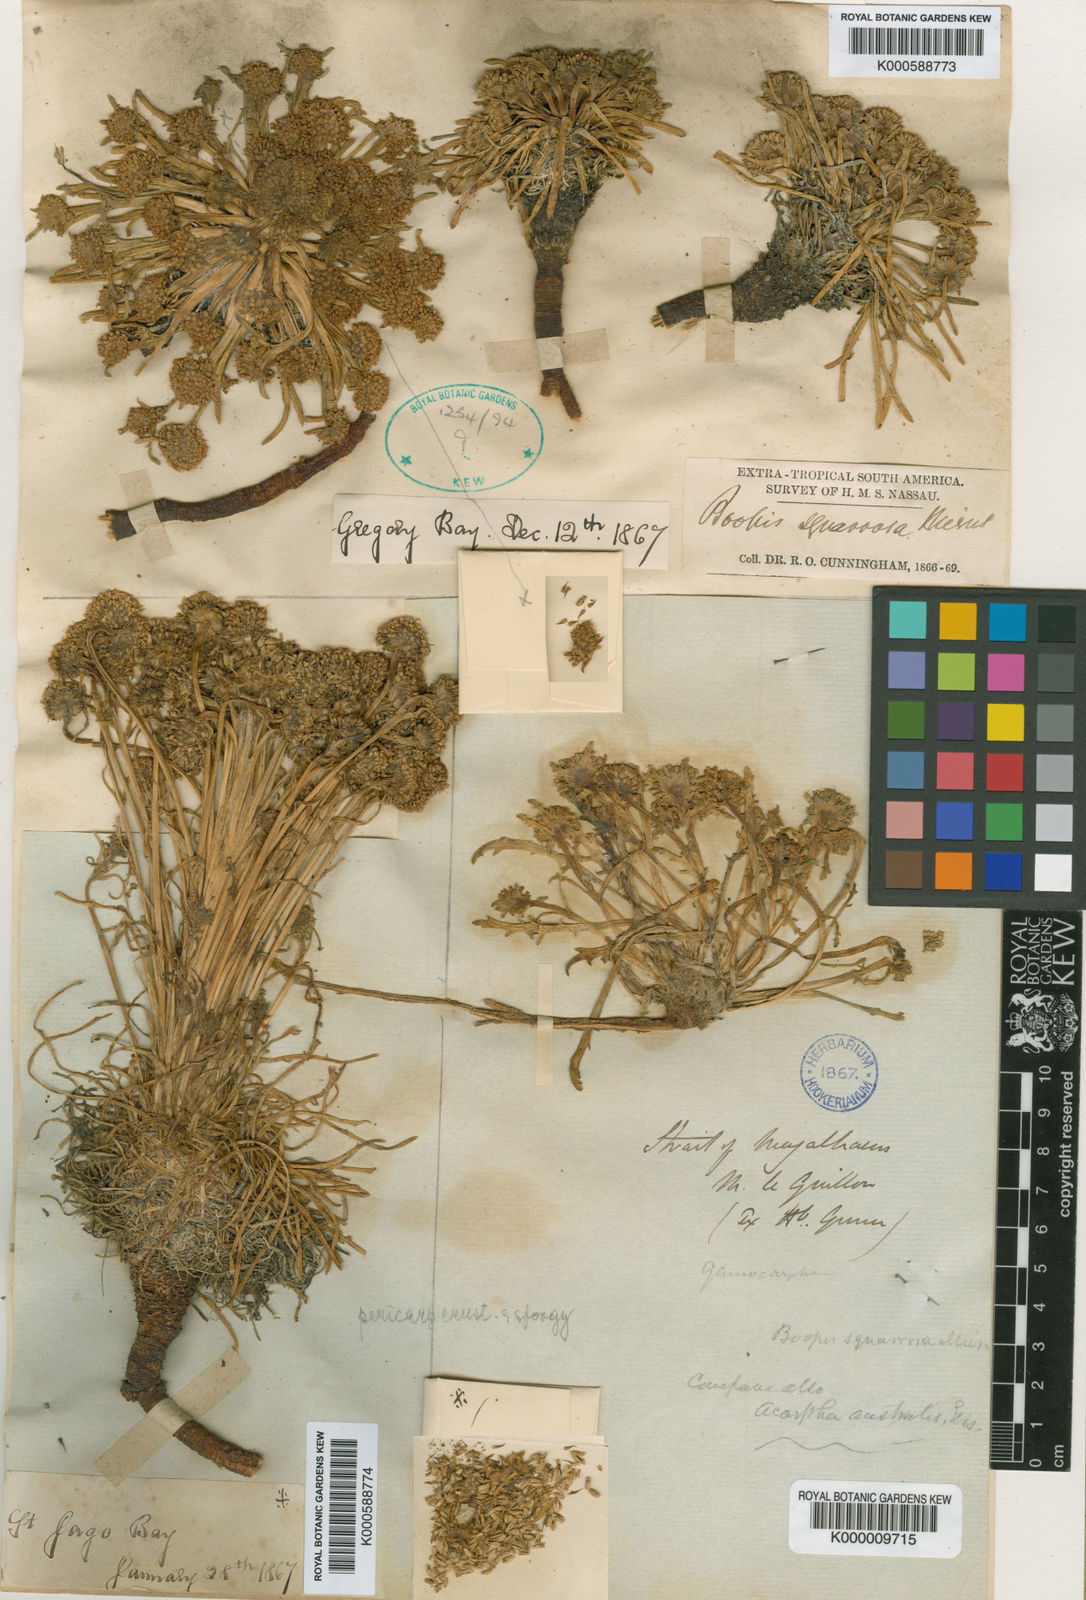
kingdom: Plantae
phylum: Tracheophyta
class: Magnoliopsida
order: Asterales
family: Calyceraceae
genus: Gamocarpha
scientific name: Gamocarpha australis
